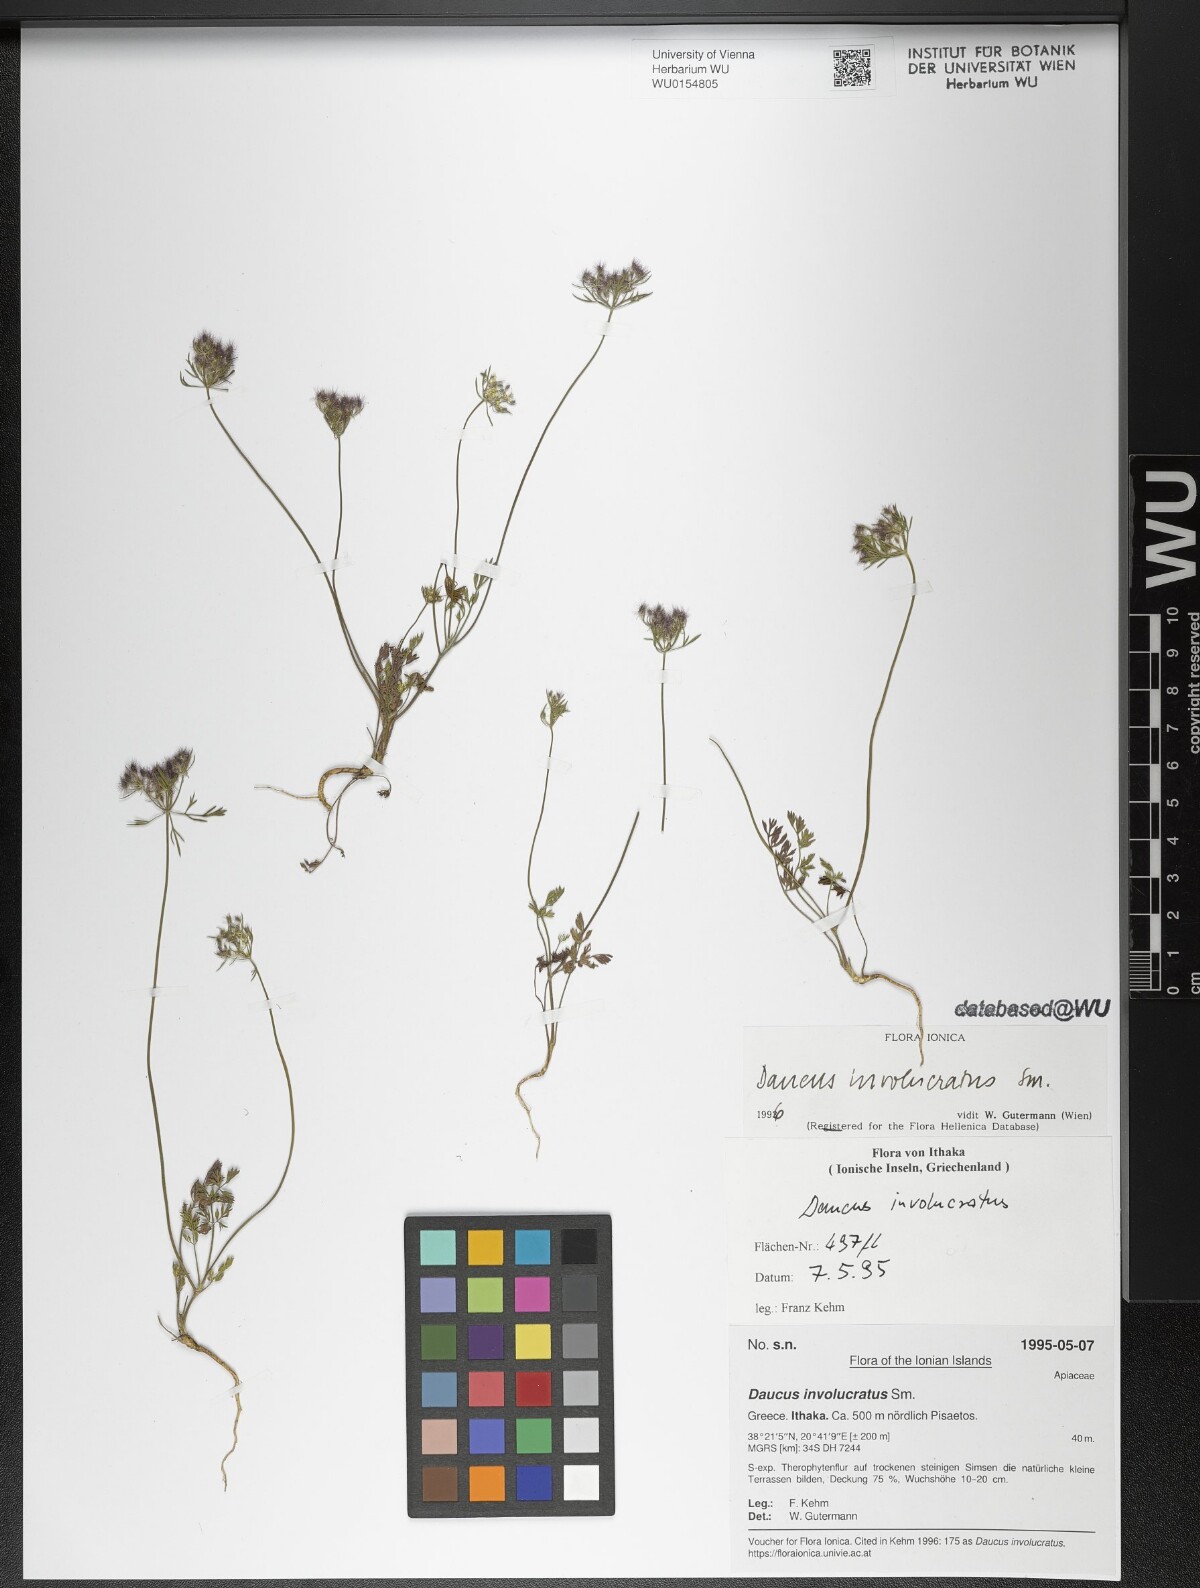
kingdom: Plantae
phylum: Tracheophyta
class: Magnoliopsida
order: Apiales
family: Apiaceae
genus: Daucus
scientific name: Daucus involucratus
